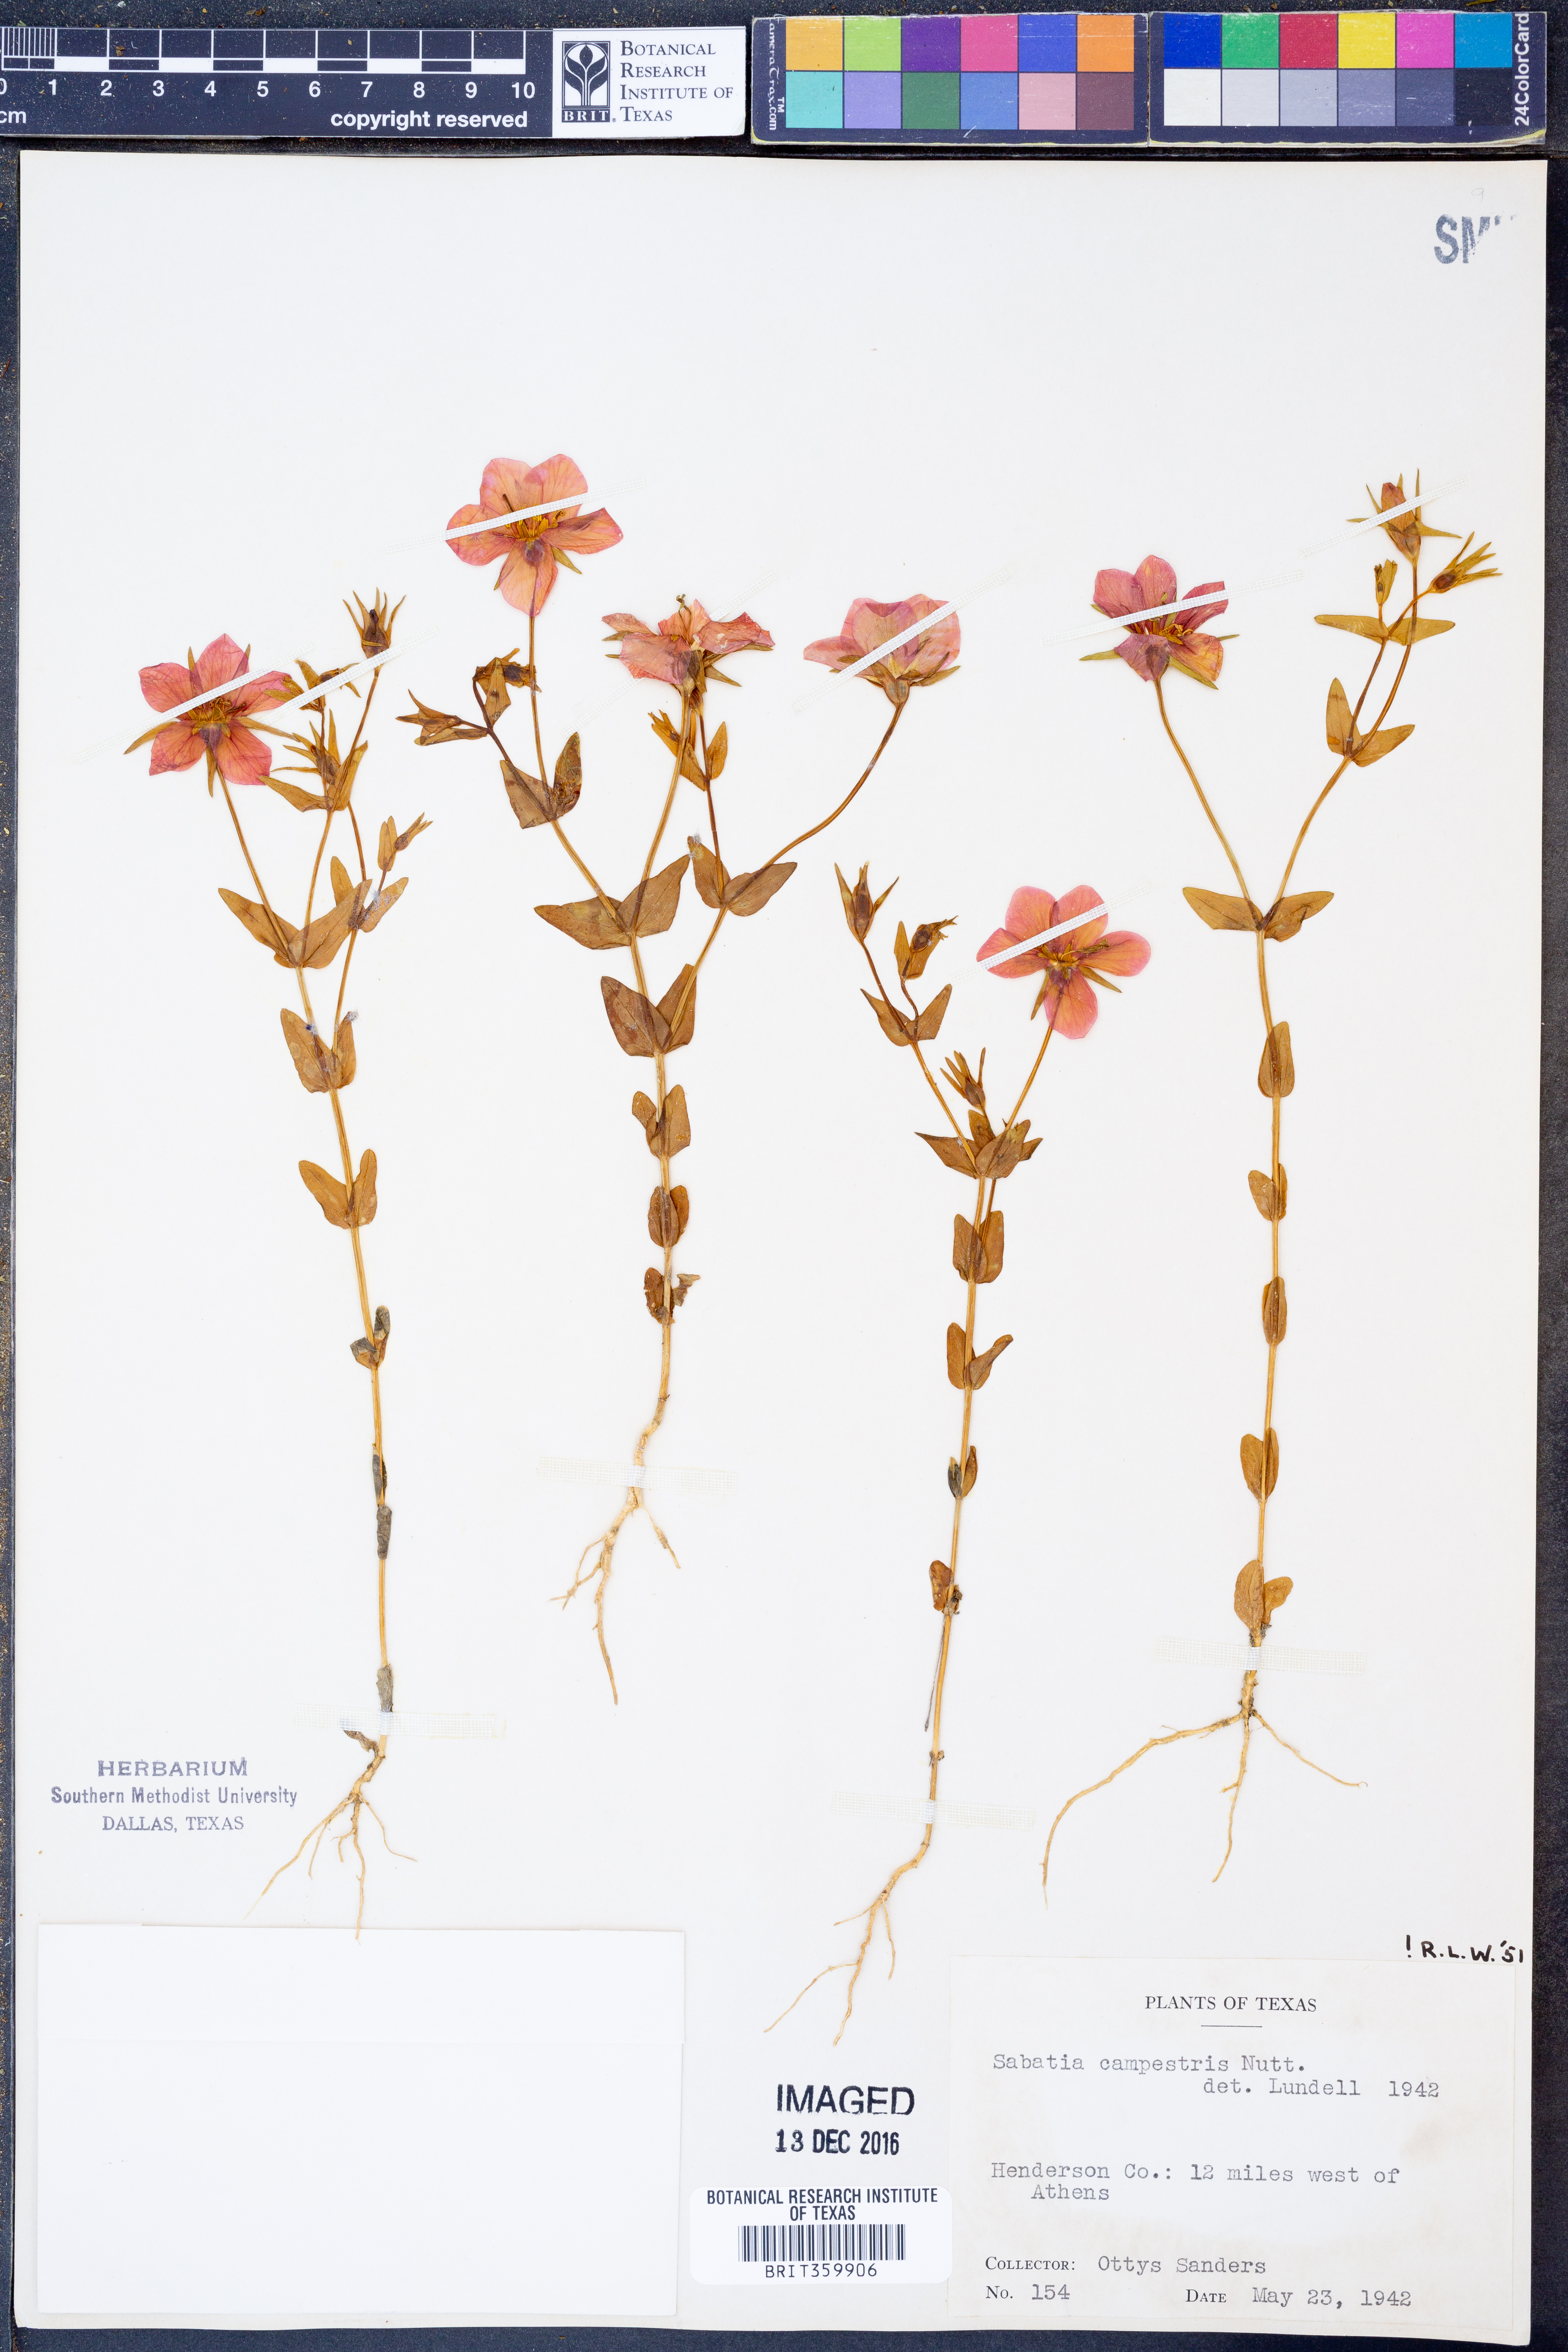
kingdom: Plantae
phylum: Tracheophyta
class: Magnoliopsida
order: Gentianales
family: Gentianaceae
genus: Sabatia
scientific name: Sabatia campestris
